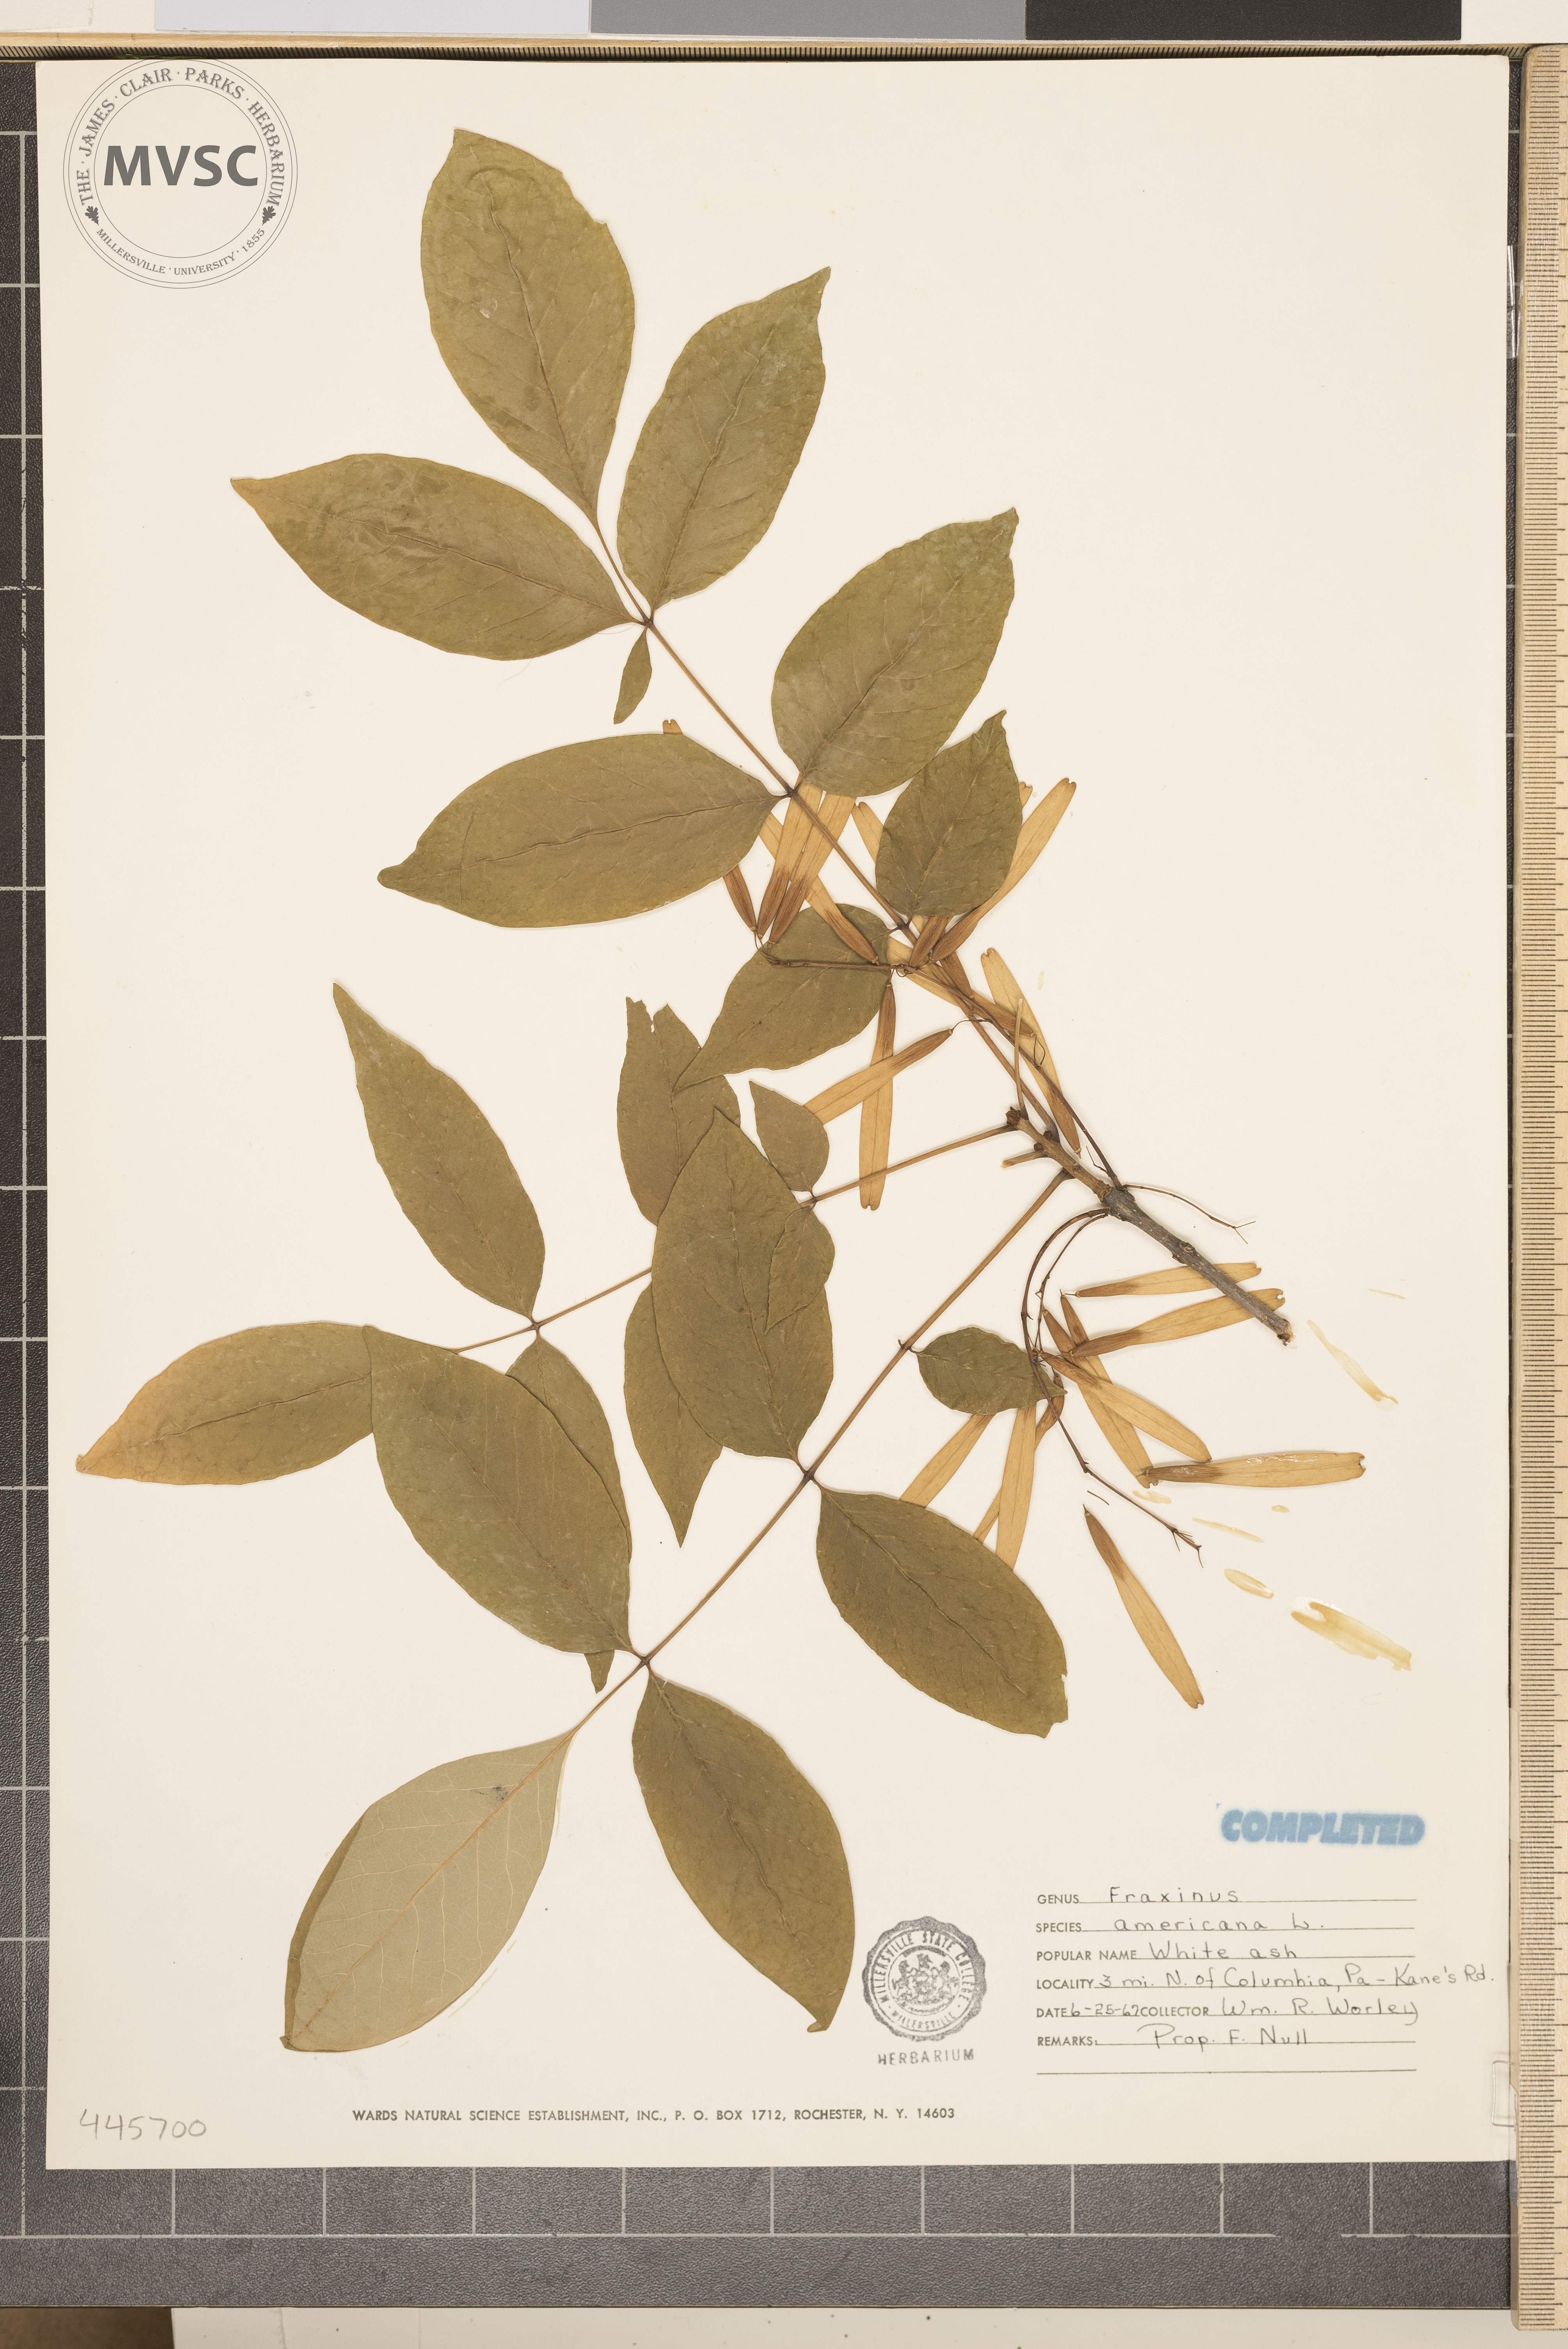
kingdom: Plantae
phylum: Tracheophyta
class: Magnoliopsida
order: Lamiales
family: Oleaceae
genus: Fraxinus
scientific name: Fraxinus americana
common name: White ash
